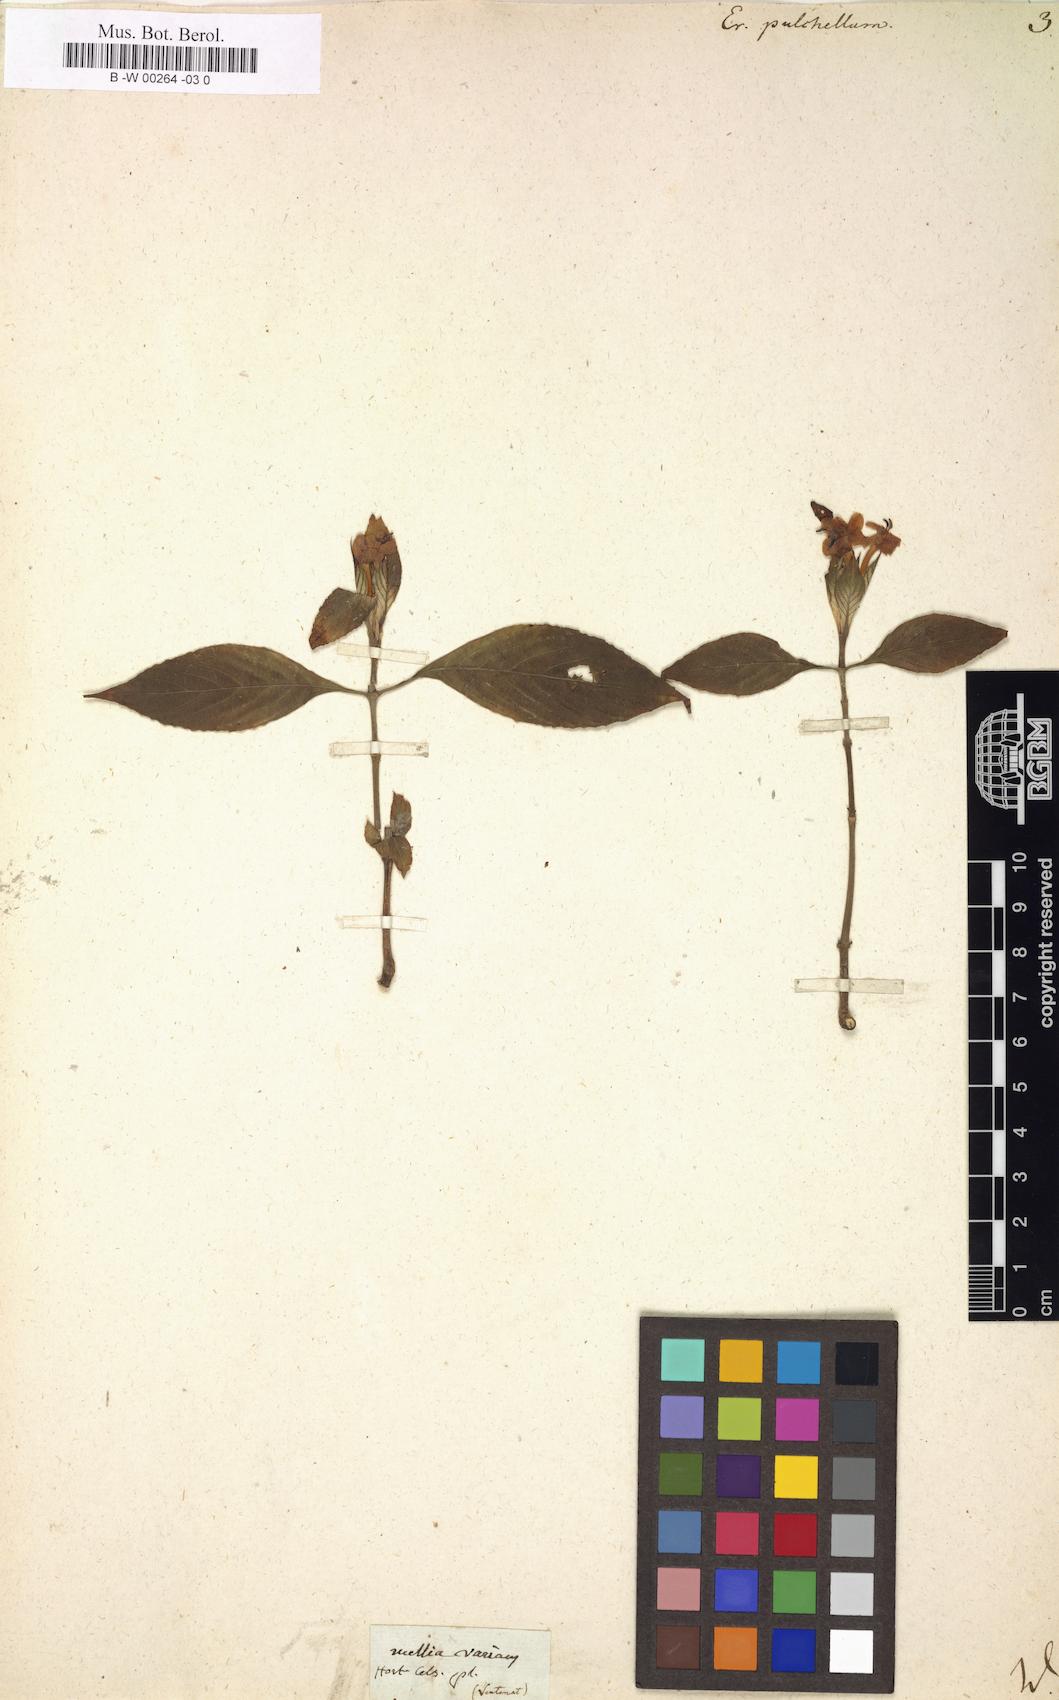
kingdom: Plantae
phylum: Tracheophyta
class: Magnoliopsida
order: Lamiales
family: Acanthaceae
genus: Eranthemum
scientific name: Eranthemum pulchellum
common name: Blue-sage
